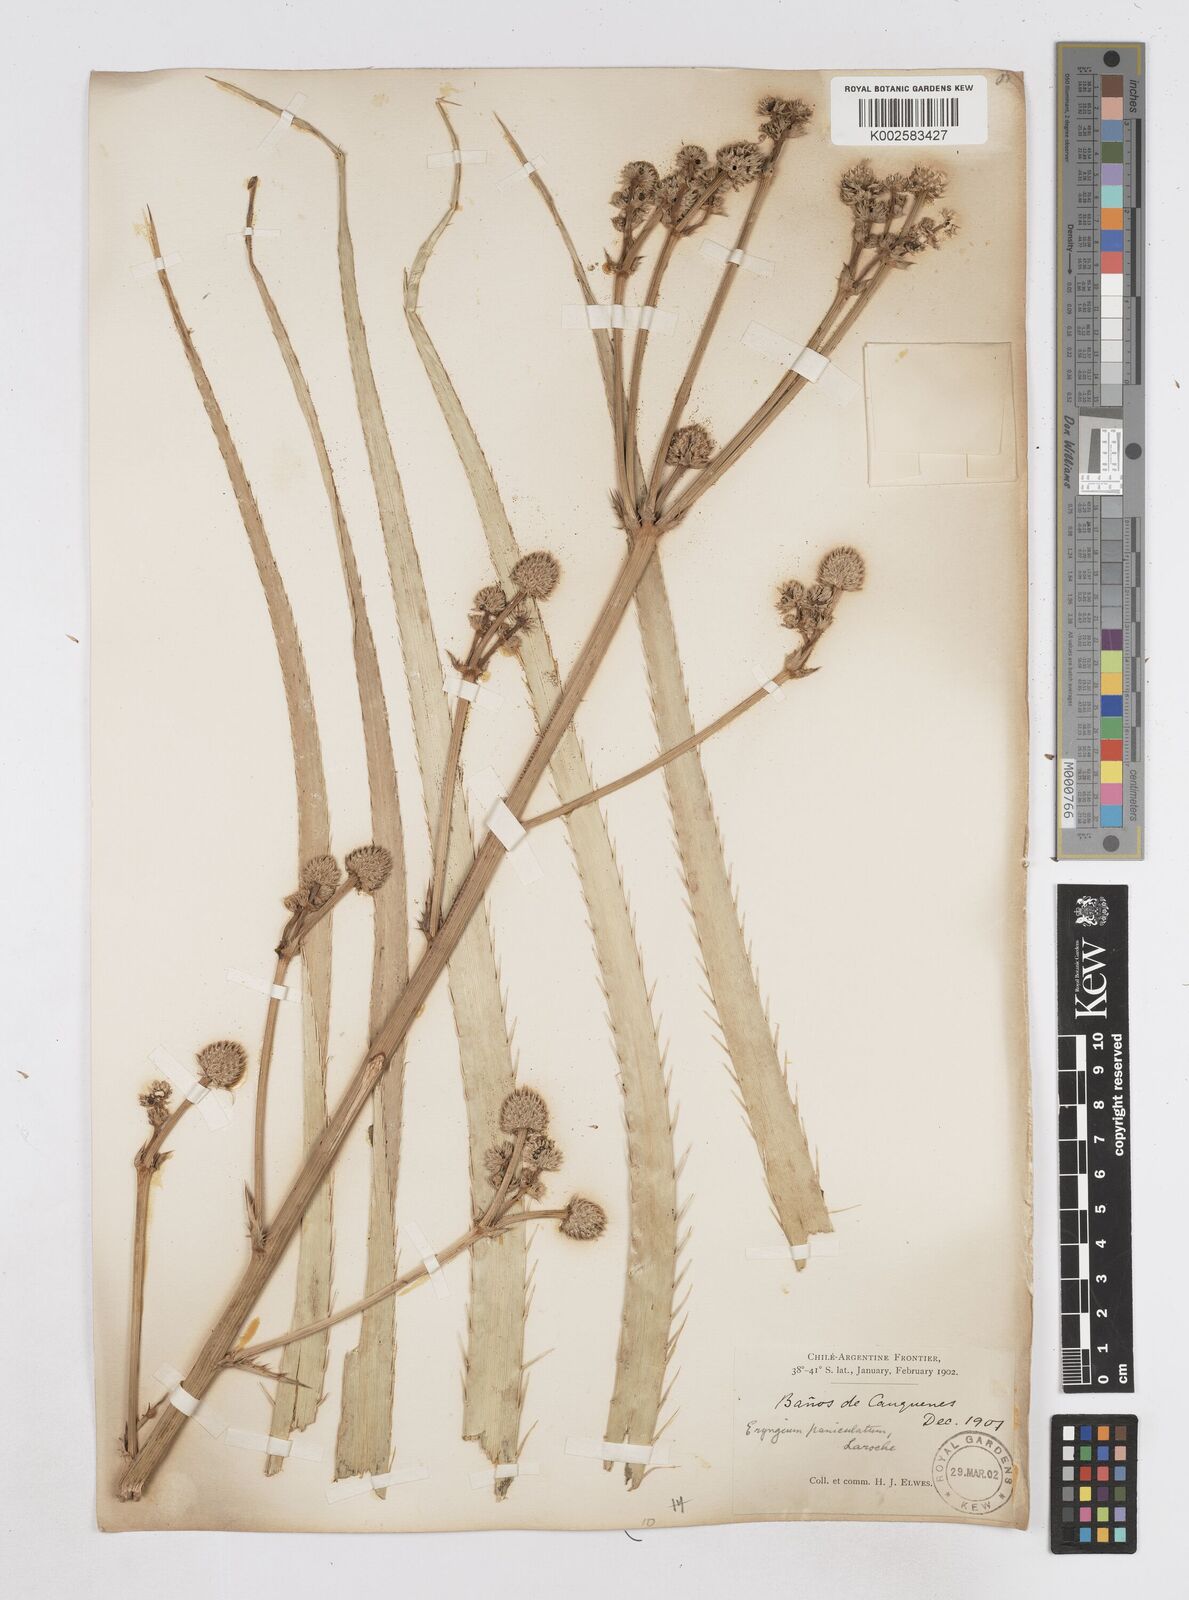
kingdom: Plantae
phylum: Tracheophyta
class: Magnoliopsida
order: Apiales
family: Apiaceae
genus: Eryngium
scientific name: Eryngium humboldtii
